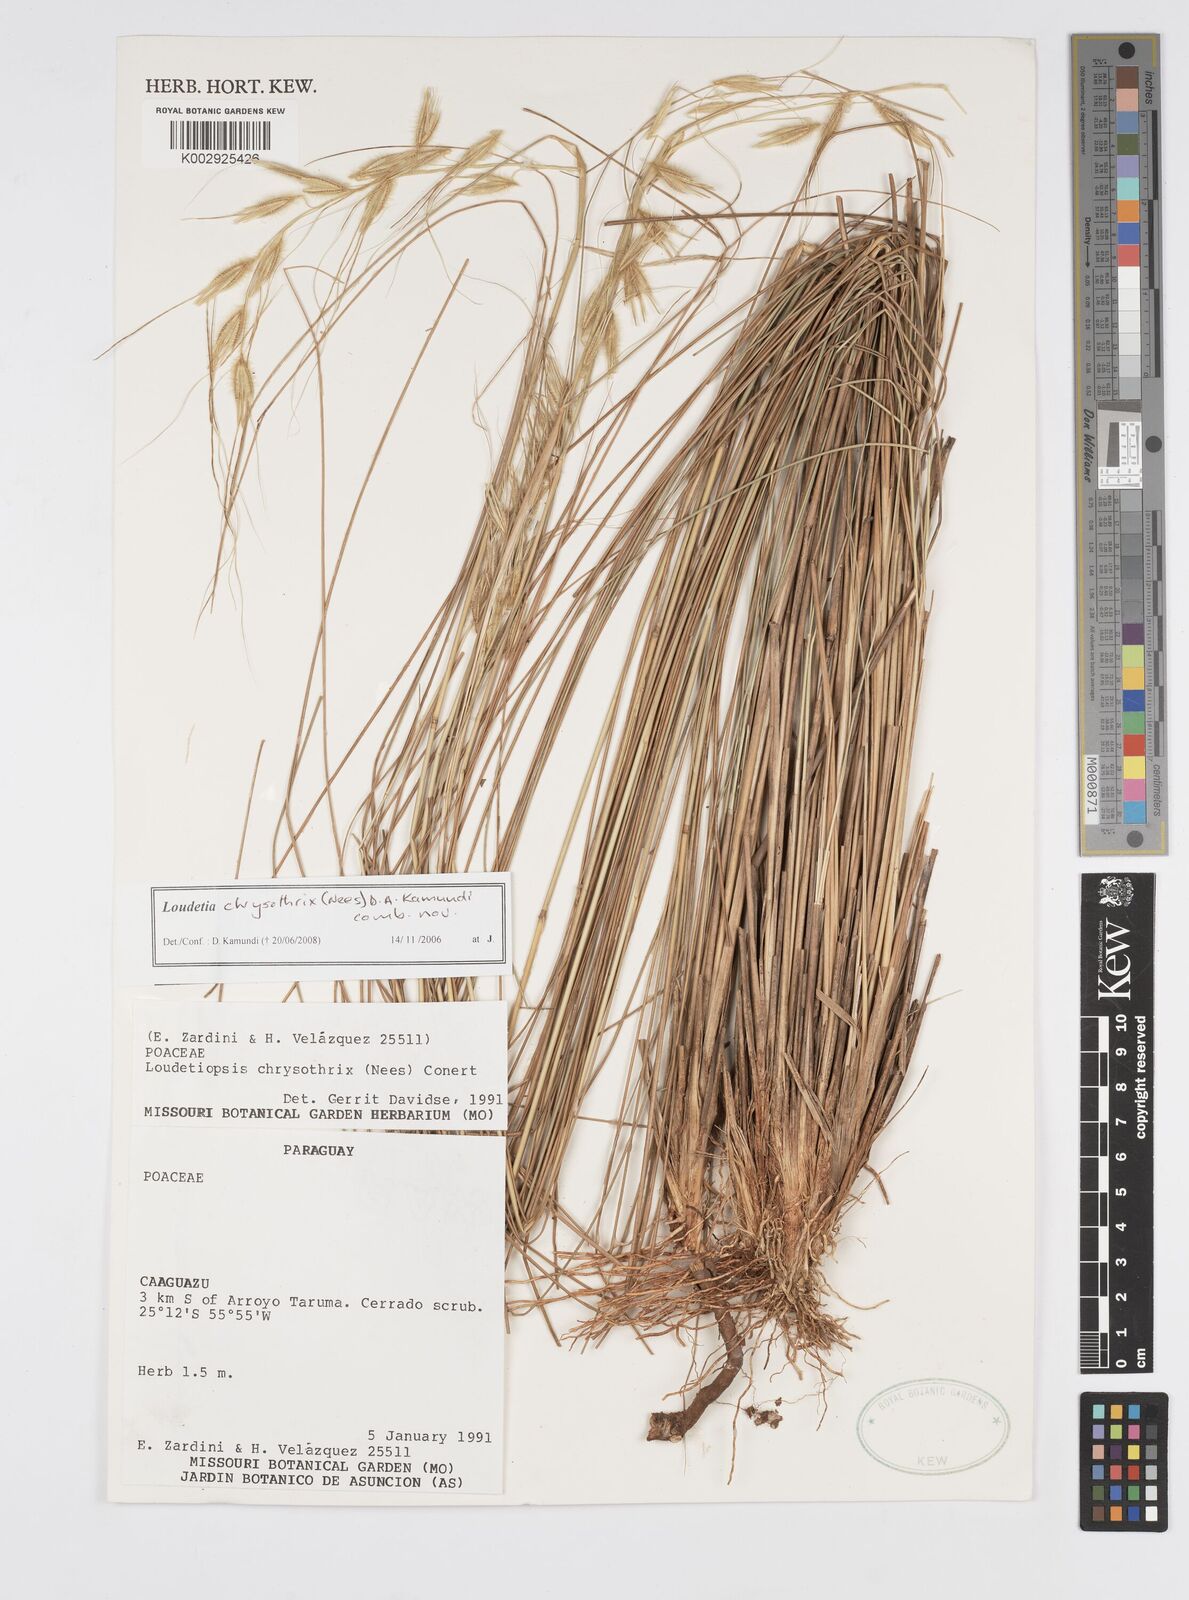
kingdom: Plantae
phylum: Tracheophyta
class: Liliopsida
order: Poales
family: Poaceae
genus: Loudetiopsis
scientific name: Loudetiopsis chrysothrix
